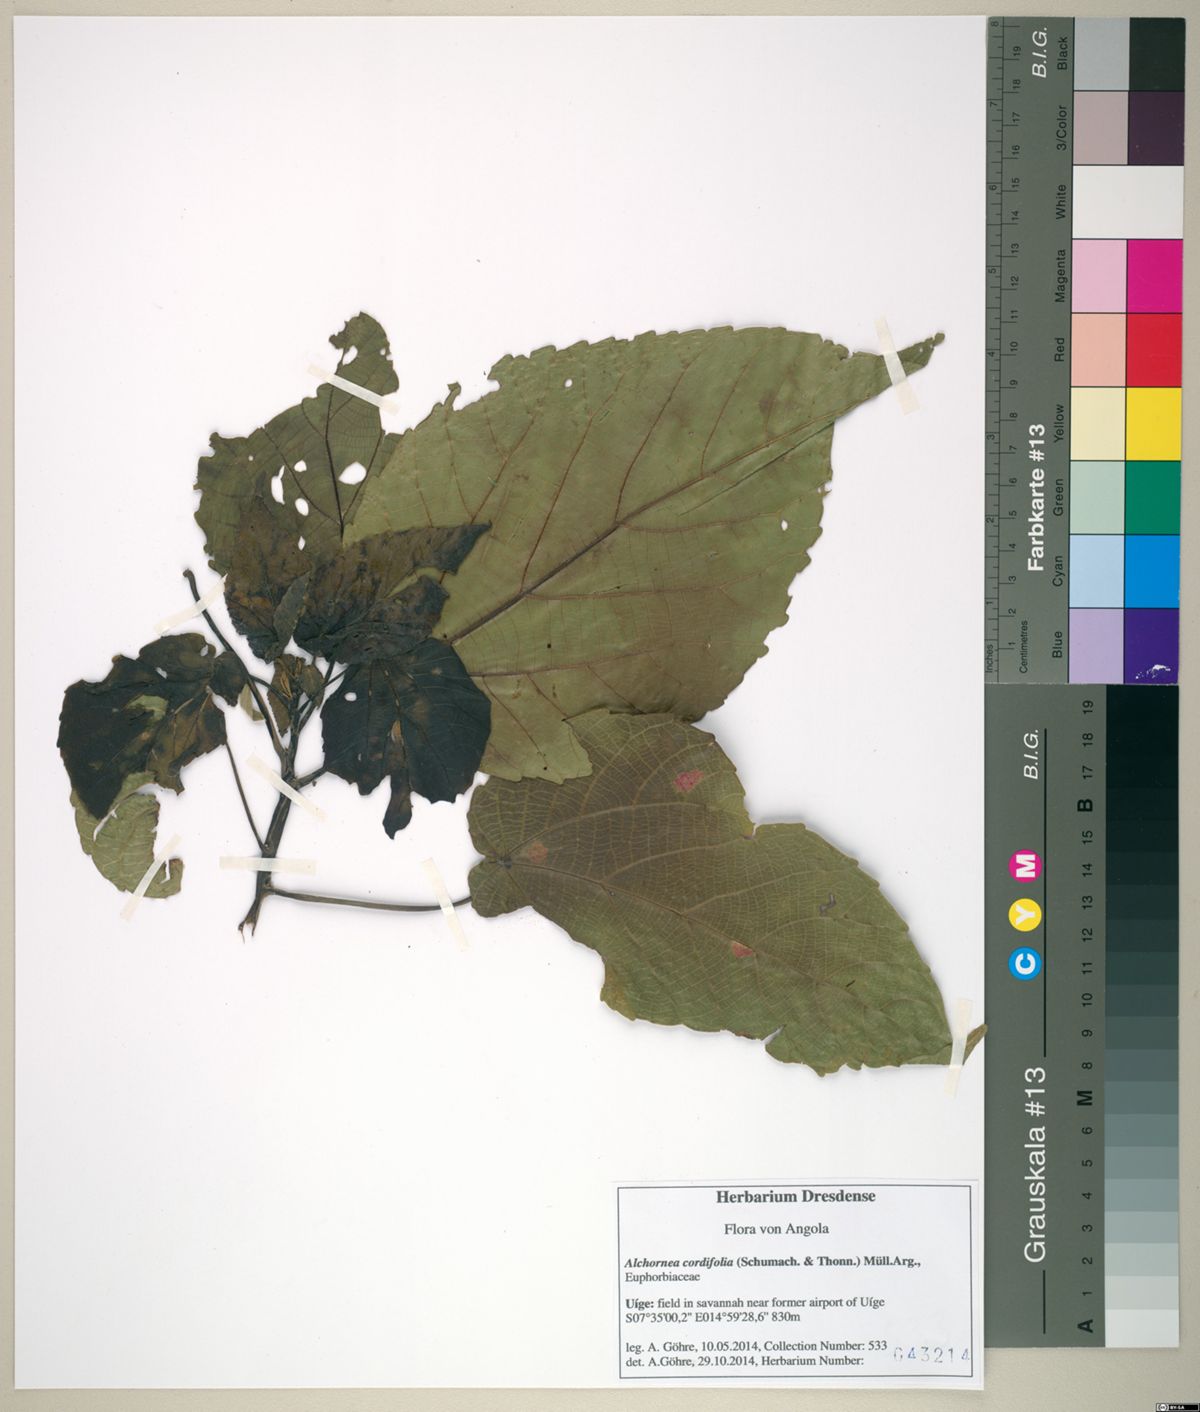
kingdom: Plantae
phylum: Tracheophyta
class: Magnoliopsida
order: Malpighiales
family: Euphorbiaceae
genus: Alchornea
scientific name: Alchornea cordifolia
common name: Christmasbush
